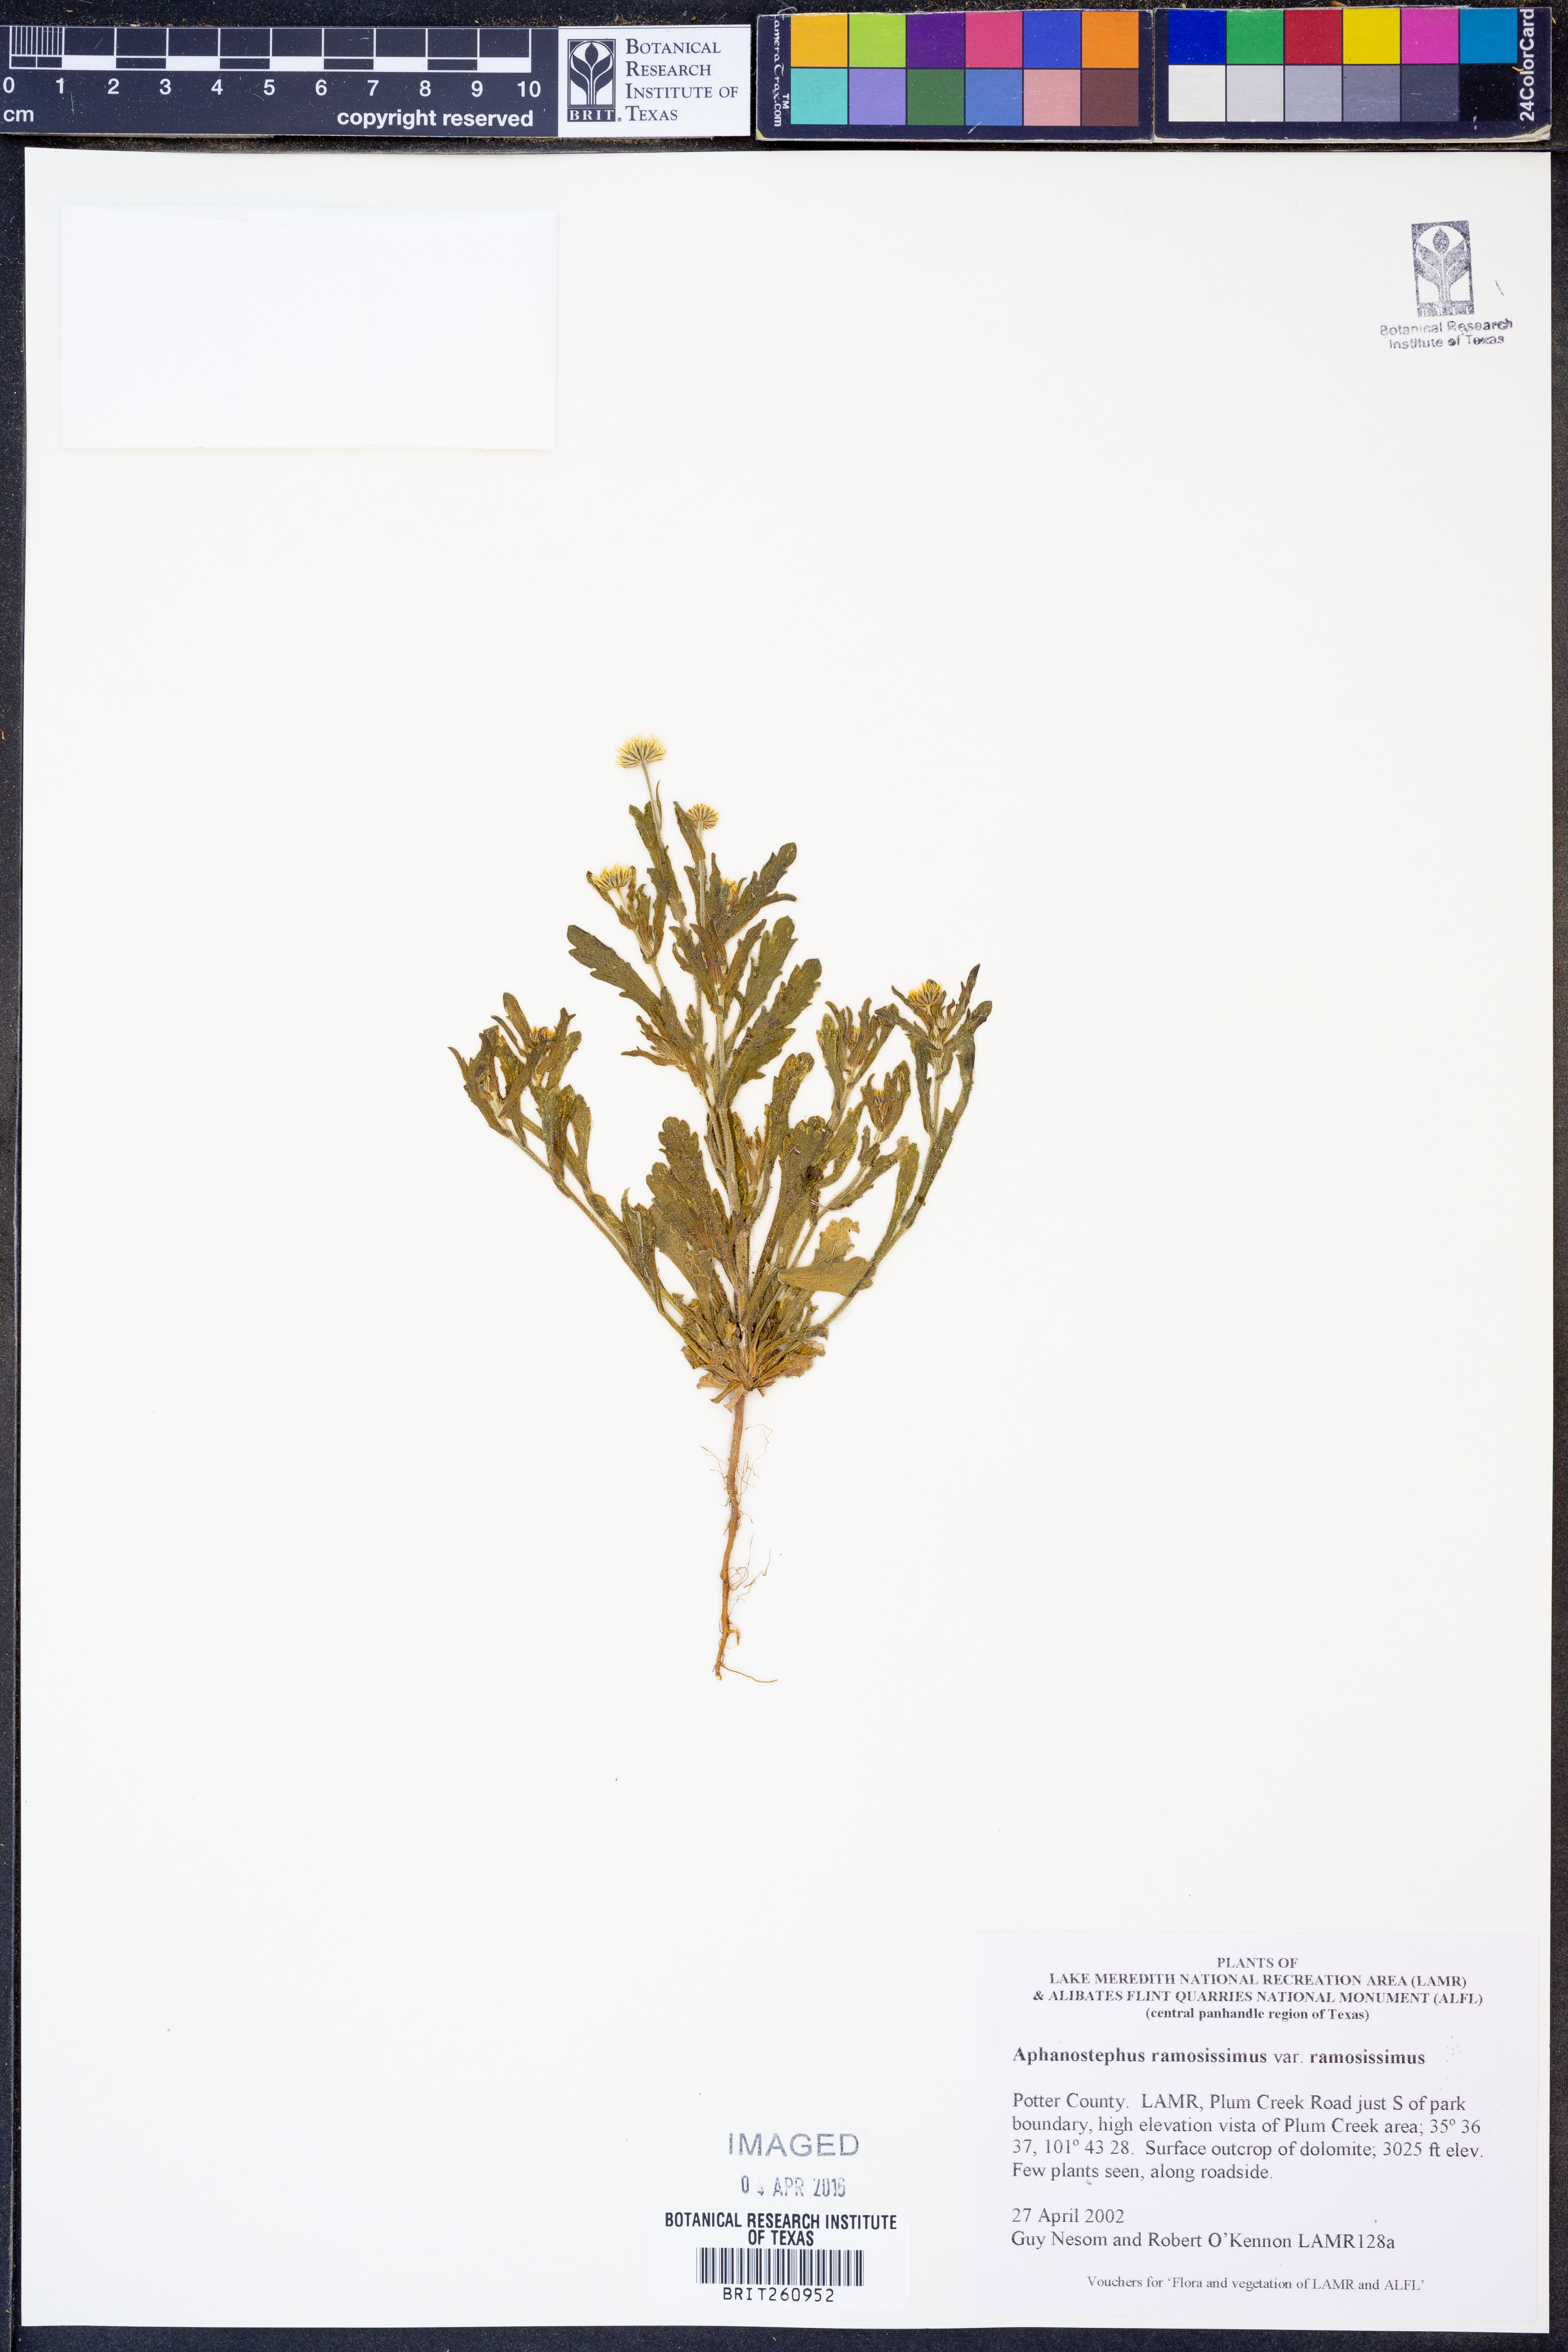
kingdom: Plantae
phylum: Tracheophyta
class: Magnoliopsida
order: Asterales
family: Asteraceae
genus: Aphanostephus
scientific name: Aphanostephus ramosissimus
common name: Plains lazy daisy
